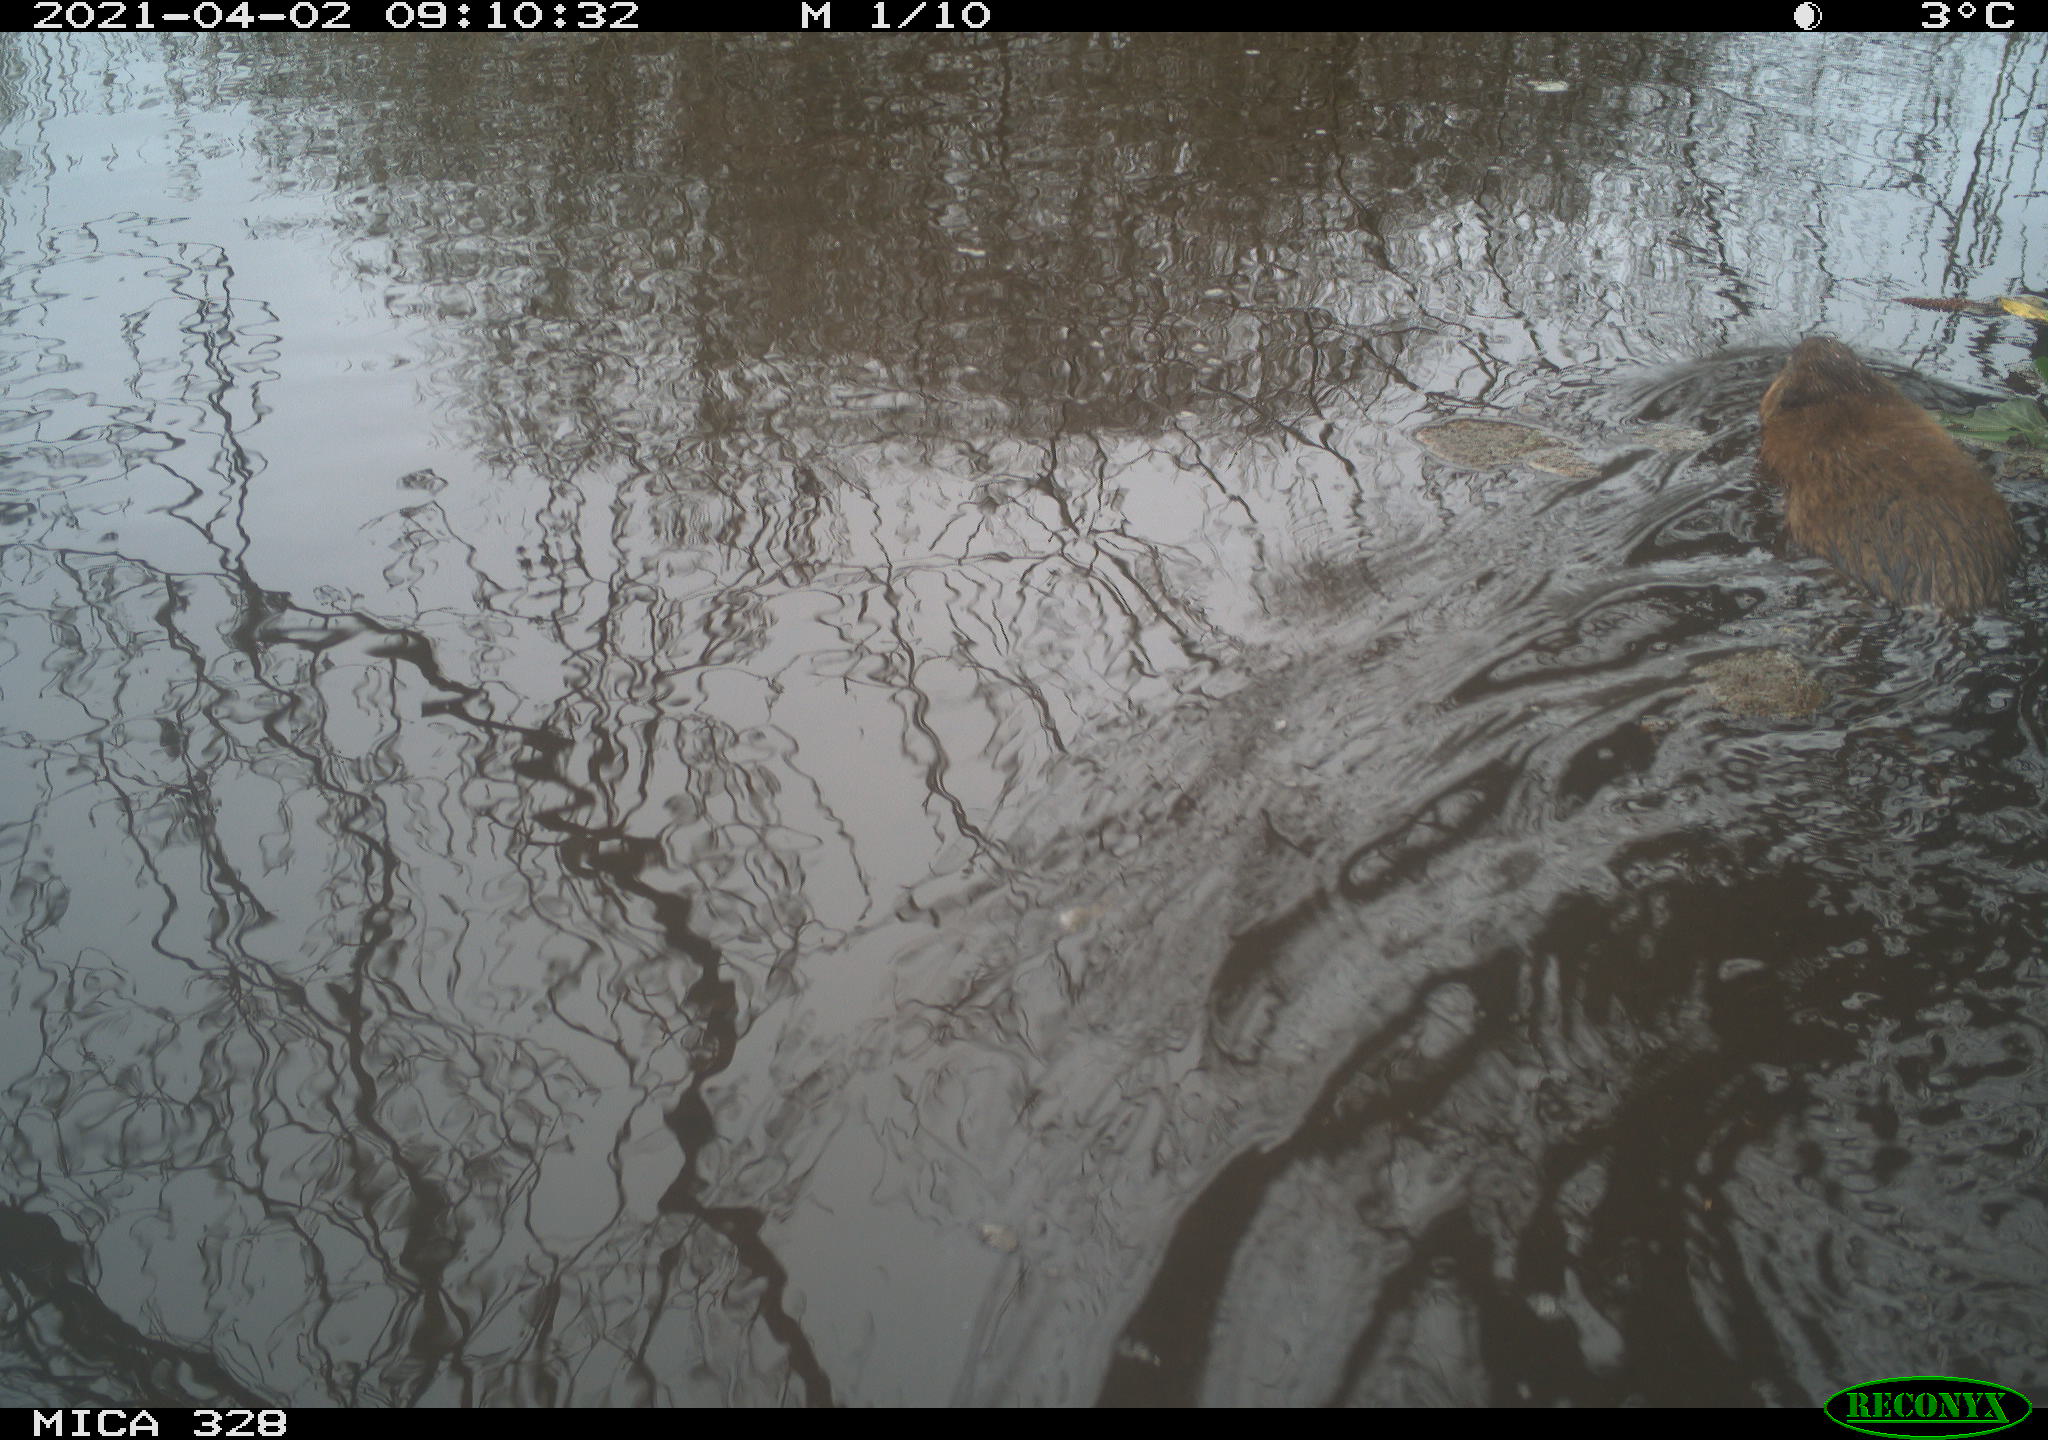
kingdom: Animalia
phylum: Chordata
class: Mammalia
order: Rodentia
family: Cricetidae
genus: Ondatra
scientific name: Ondatra zibethicus
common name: Muskrat
